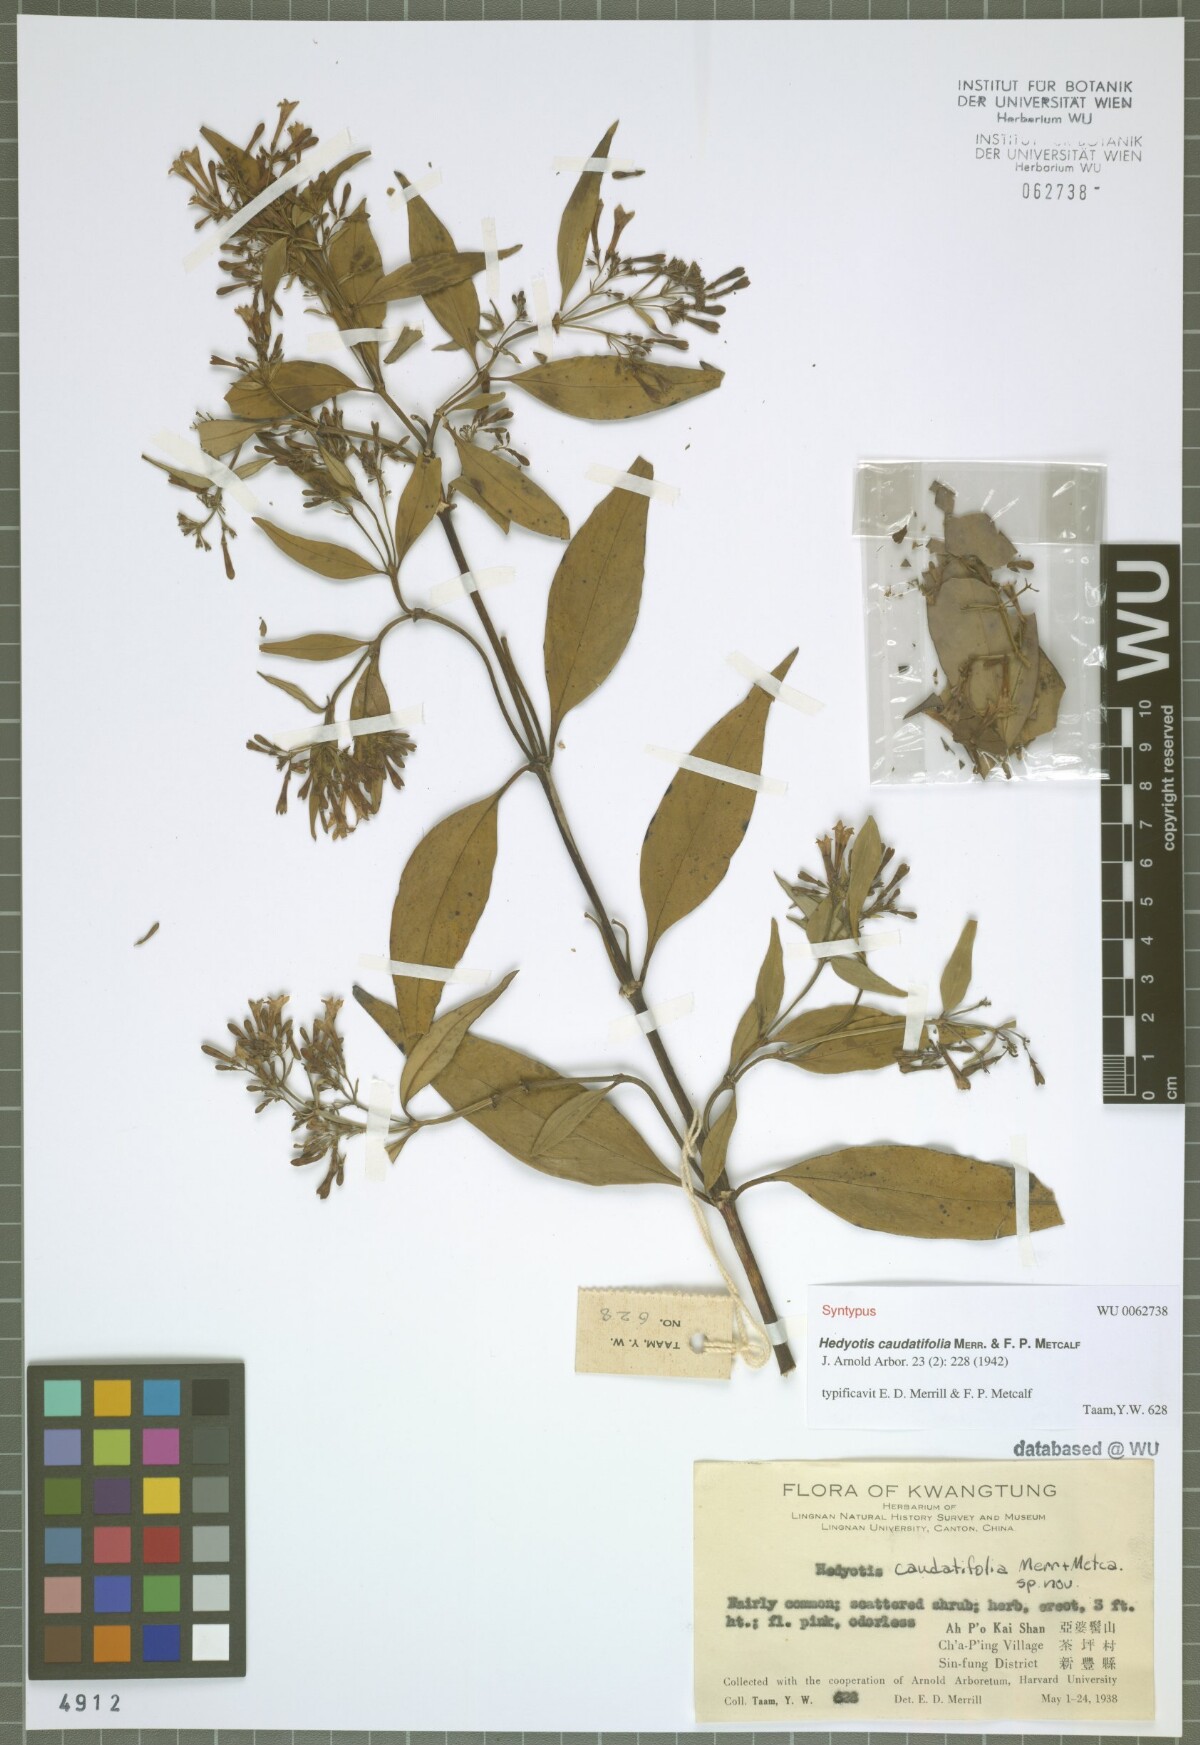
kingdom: Plantae
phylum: Tracheophyta
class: Magnoliopsida
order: Gentianales
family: Rubiaceae
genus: Hedyotis
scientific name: Hedyotis caudatifolia
